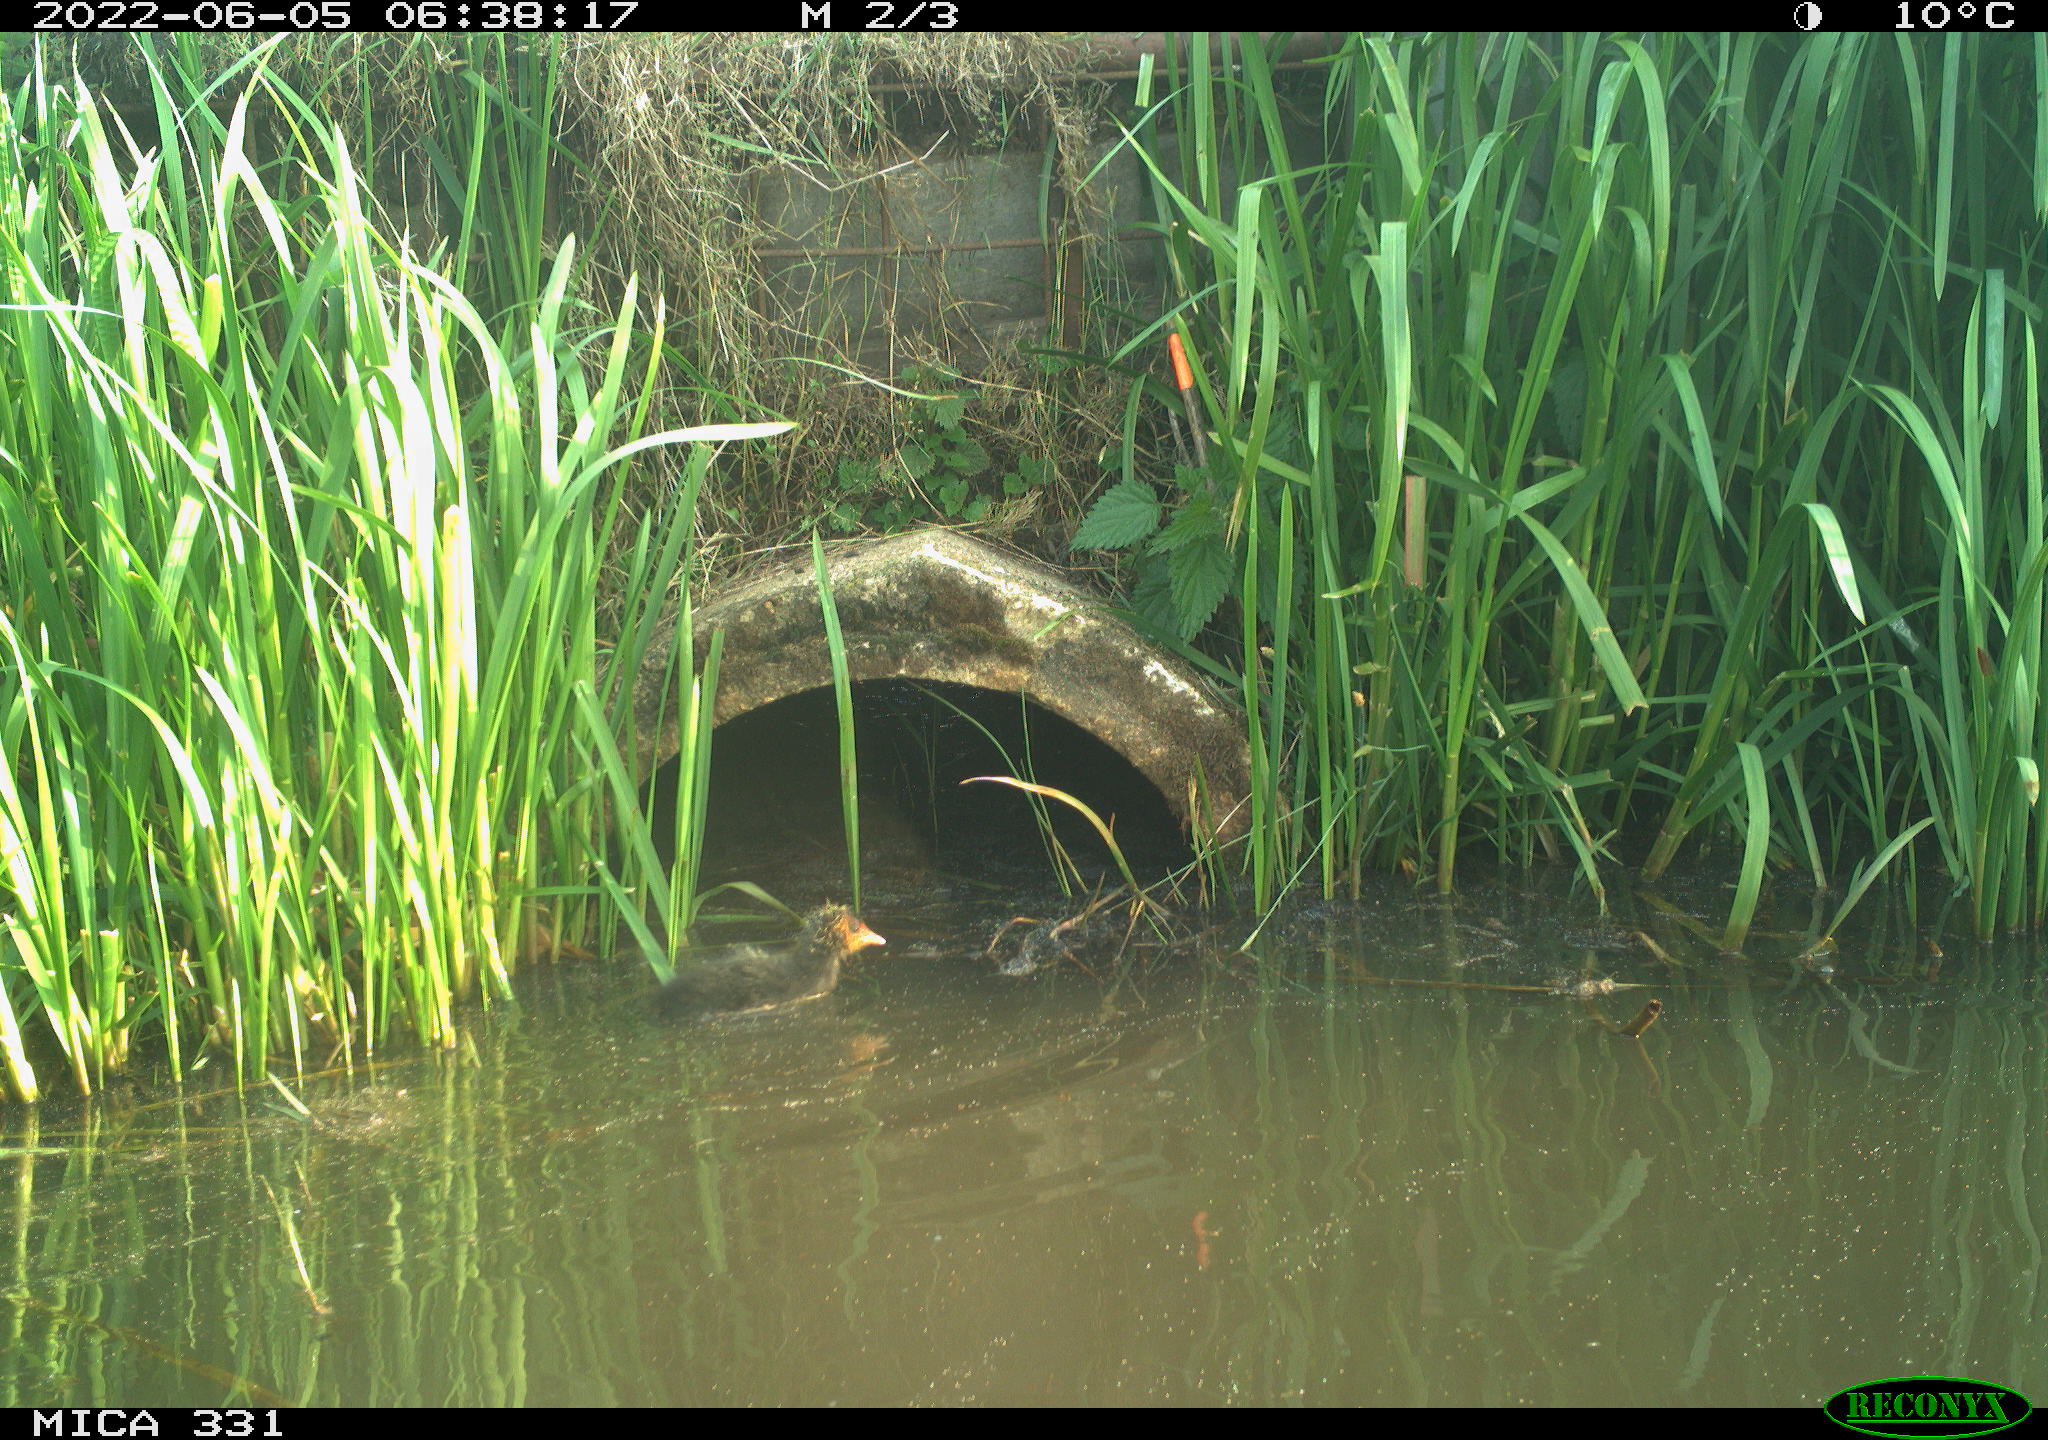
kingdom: Animalia
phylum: Chordata
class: Aves
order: Gruiformes
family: Rallidae
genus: Fulica
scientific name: Fulica atra
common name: Eurasian coot
